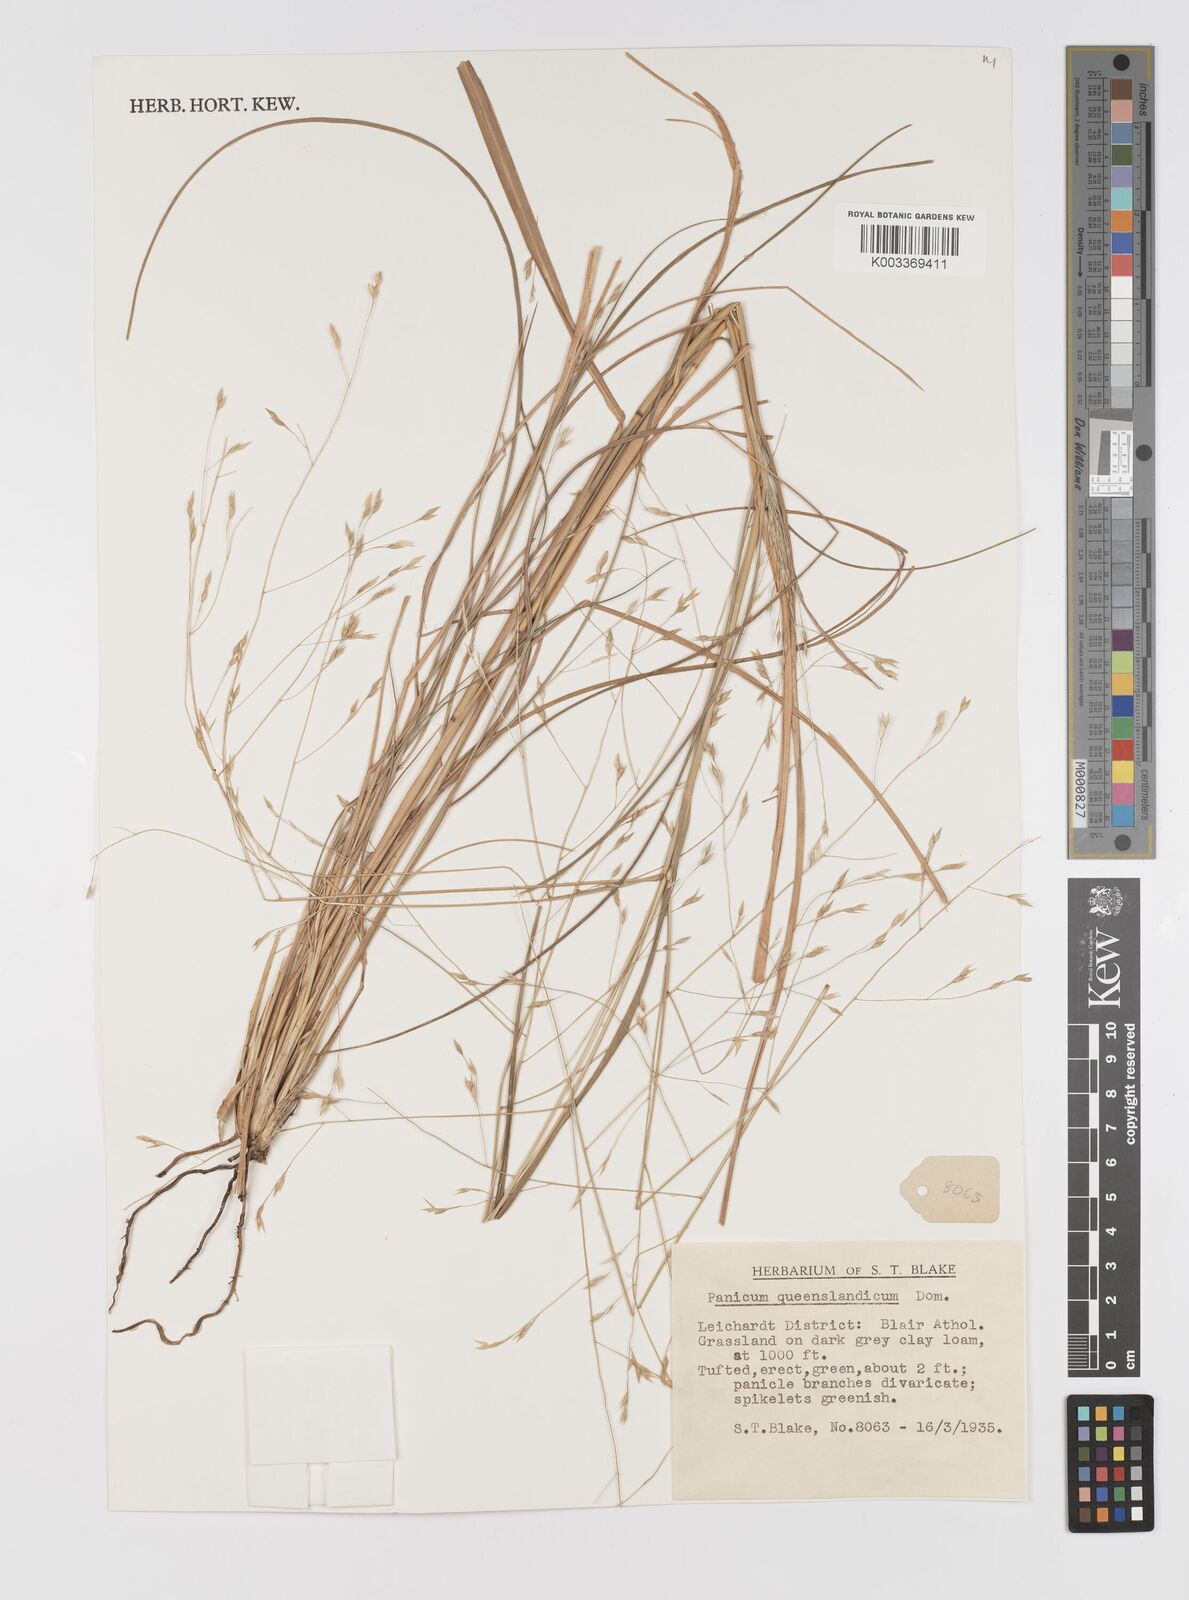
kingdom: Plantae
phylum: Tracheophyta
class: Liliopsida
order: Poales
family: Poaceae
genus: Panicum
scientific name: Panicum queenslandicum
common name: Yabila grass
